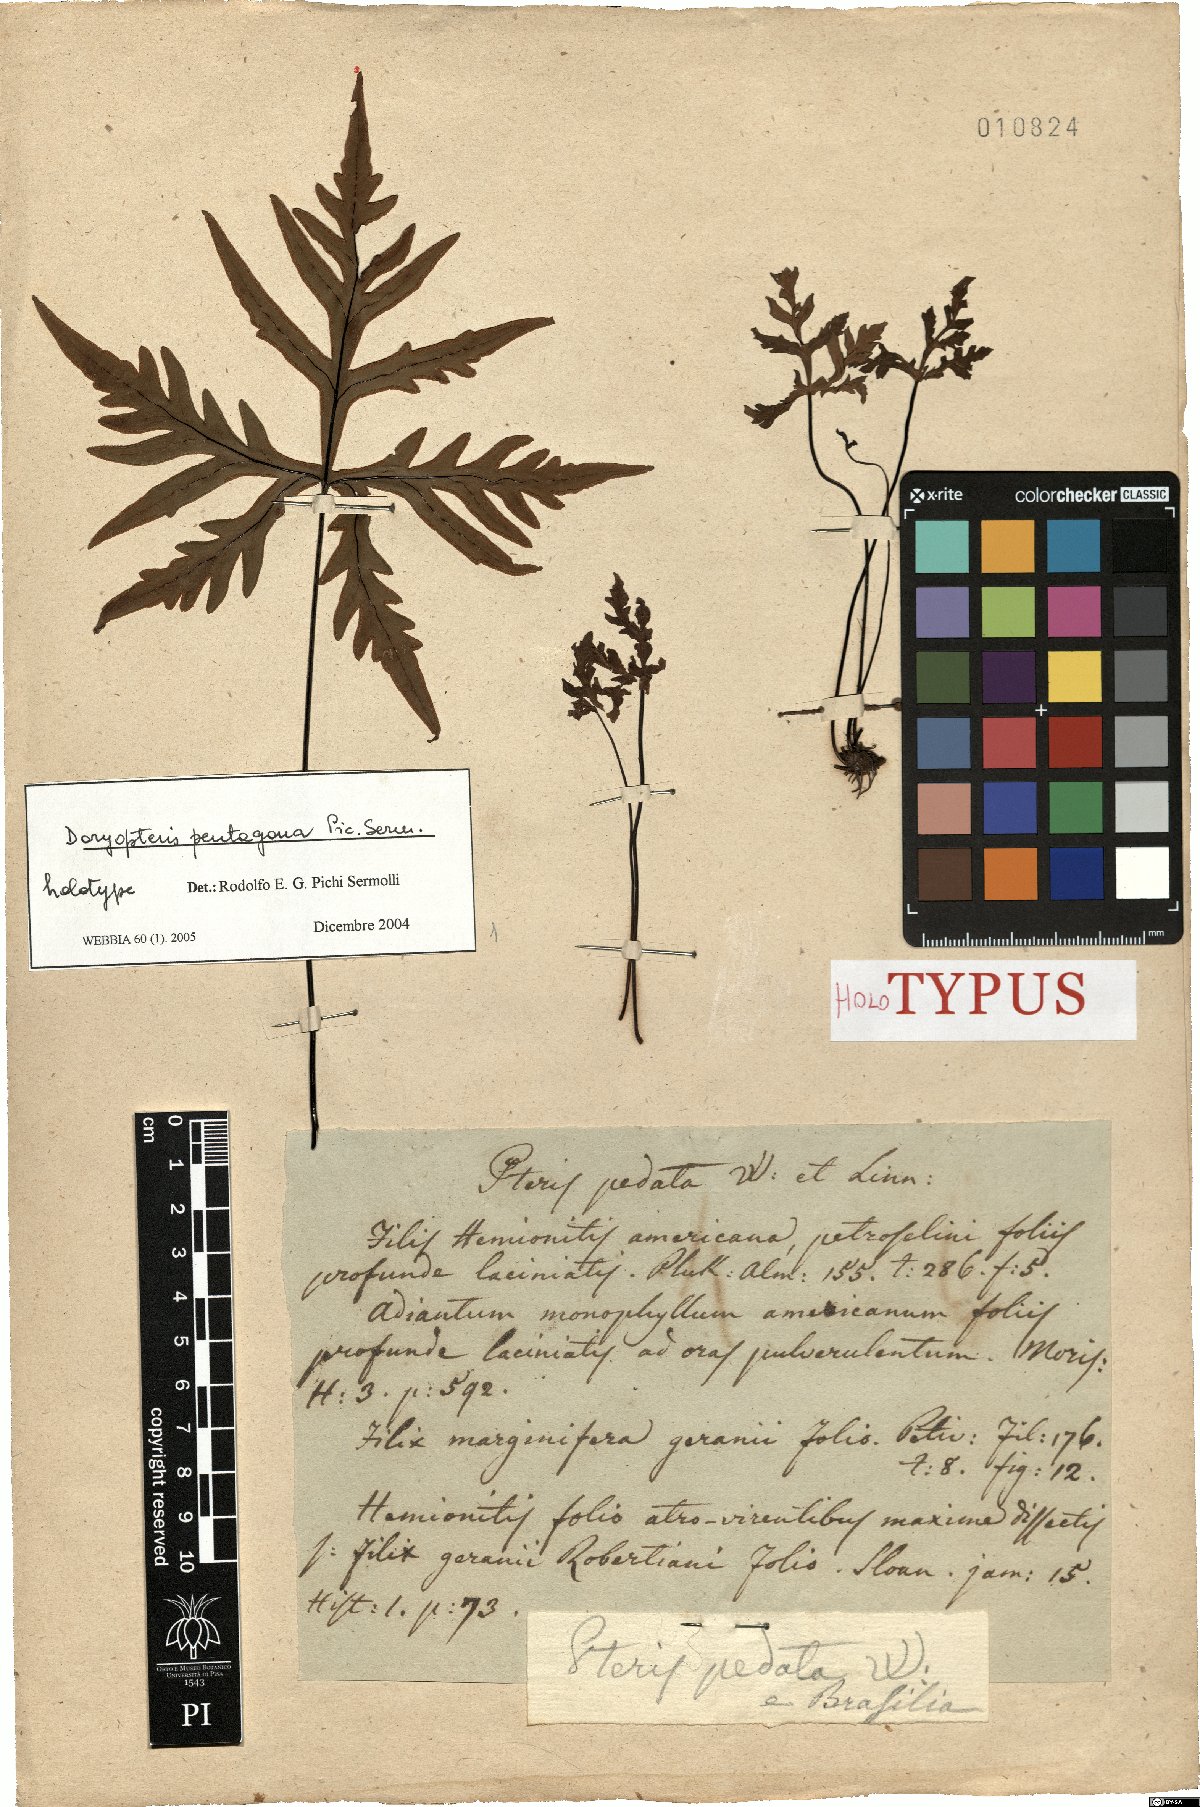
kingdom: Plantae
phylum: Tracheophyta
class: Polypodiopsida
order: Polypodiales
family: Pteridaceae
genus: Doryopteris
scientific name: Doryopteris pentagona
